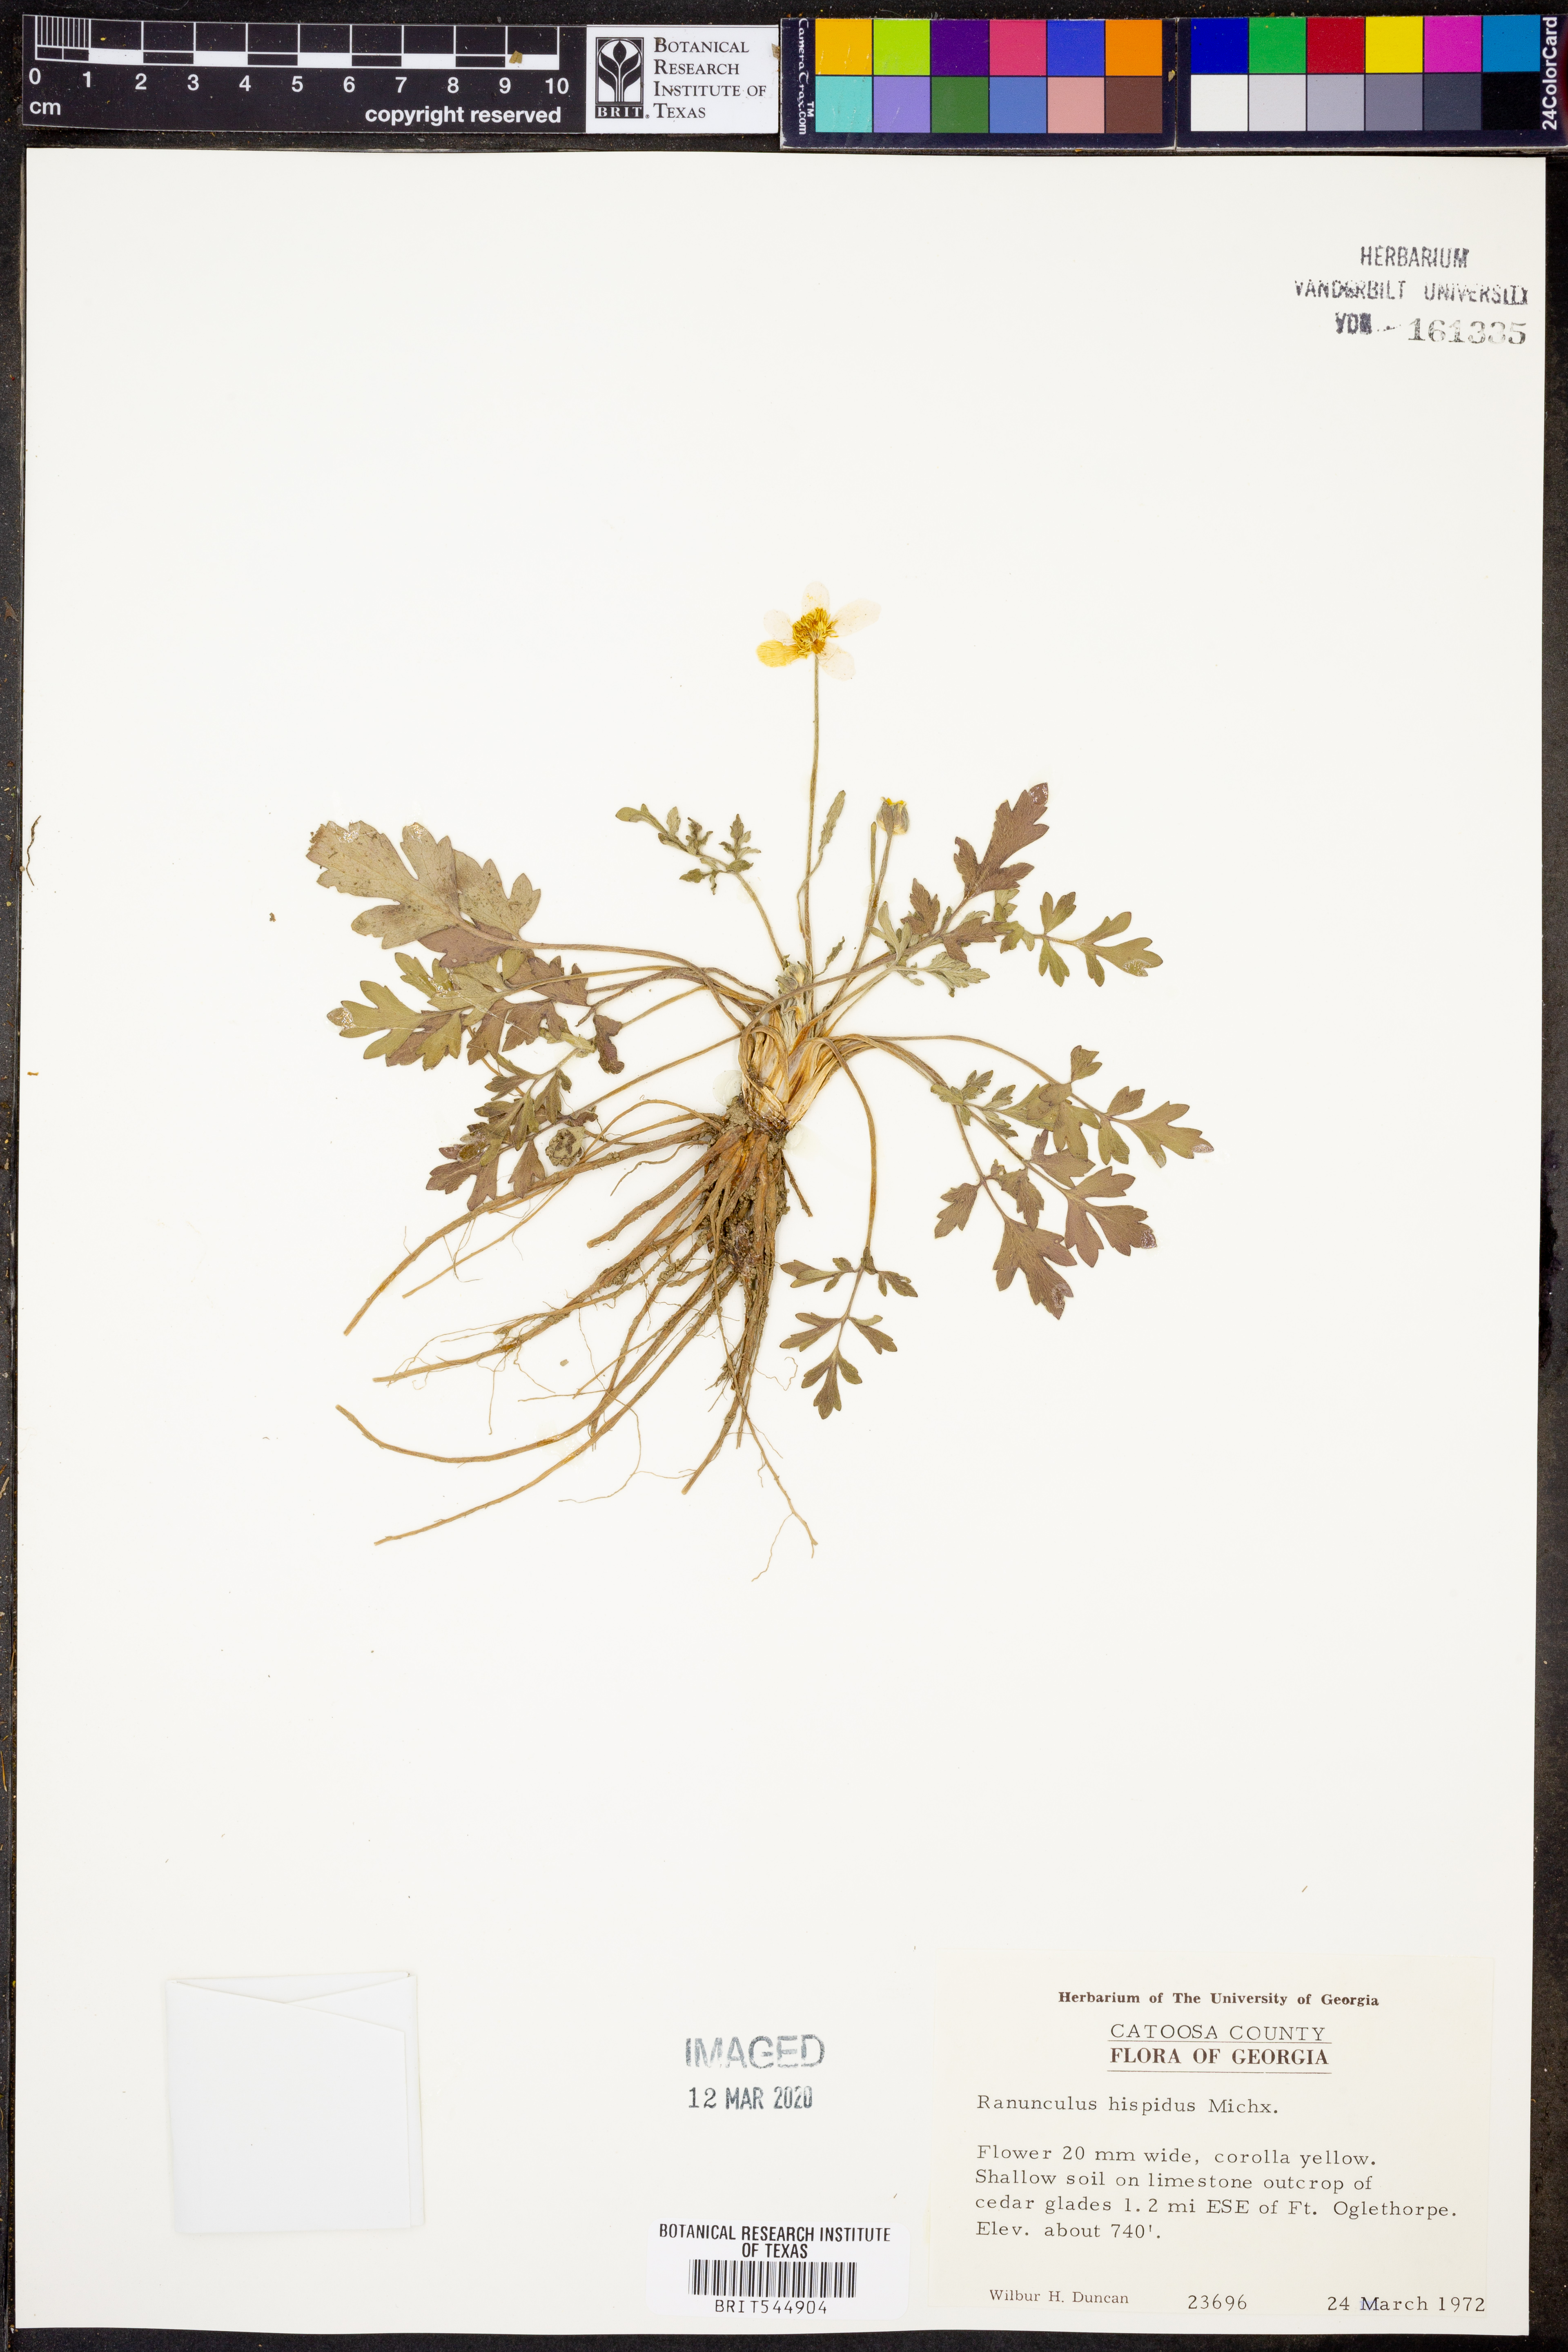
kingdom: Plantae
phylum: Tracheophyta
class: Magnoliopsida
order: Ranunculales
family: Ranunculaceae
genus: Ranunculus
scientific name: Ranunculus hispidus
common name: Bristly buttercup
